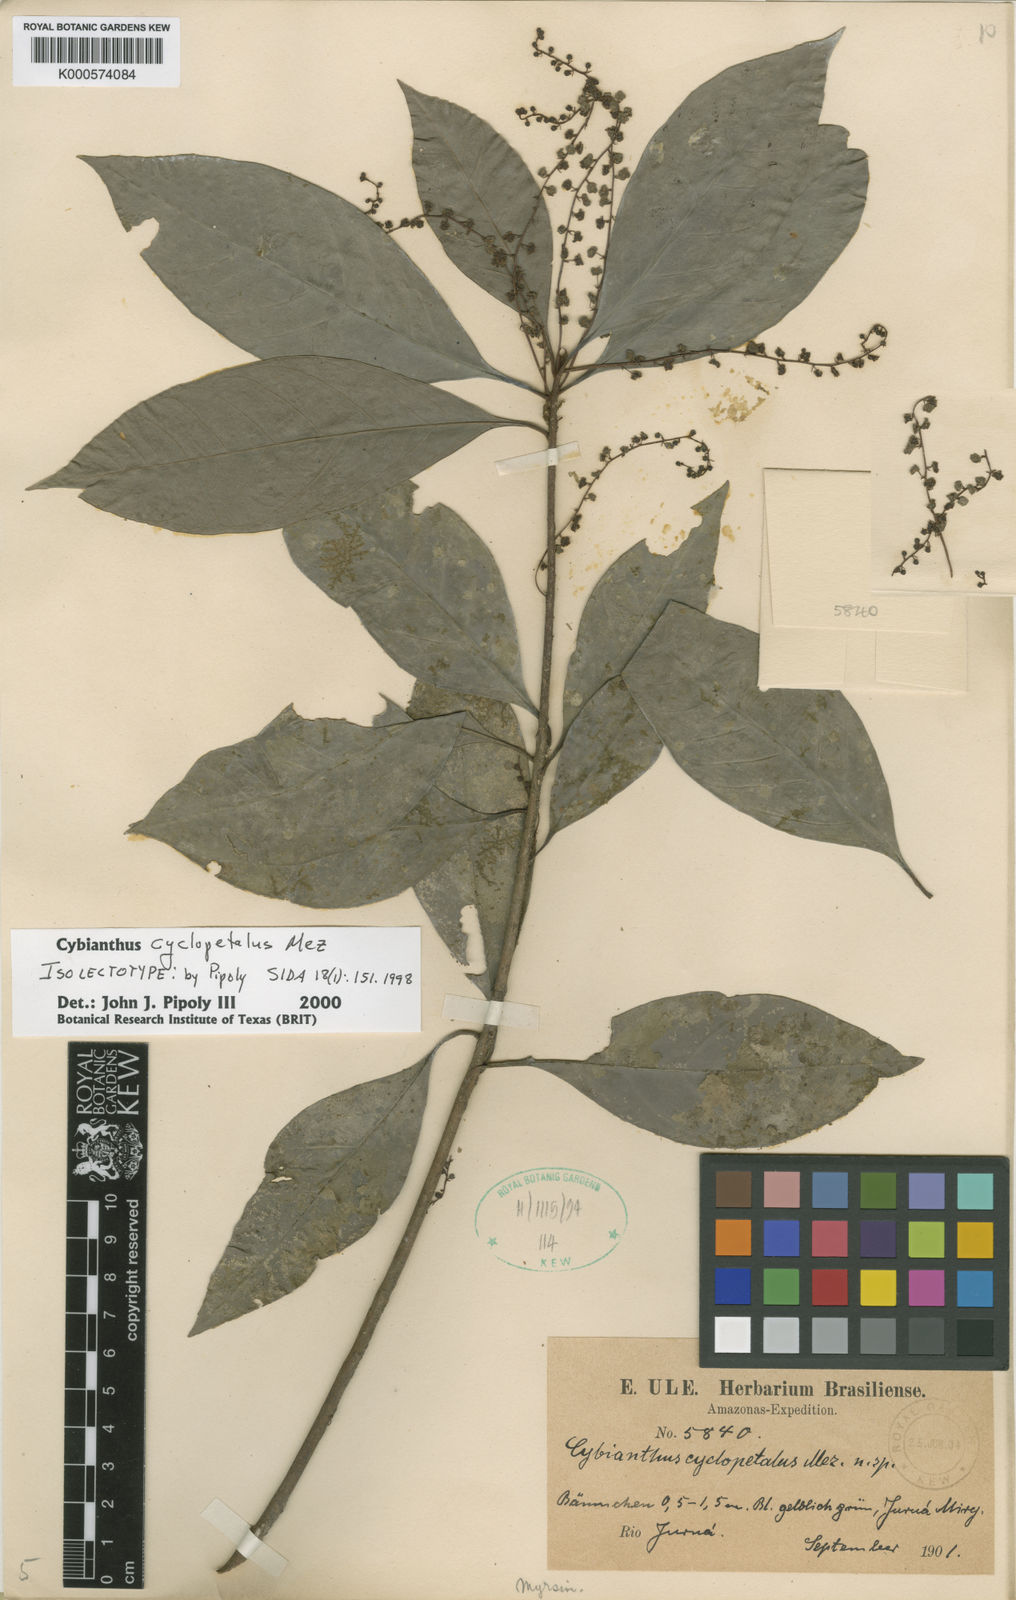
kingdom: Plantae
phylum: Tracheophyta
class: Magnoliopsida
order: Ericales
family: Primulaceae
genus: Cybianthus
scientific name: Cybianthus detergens
